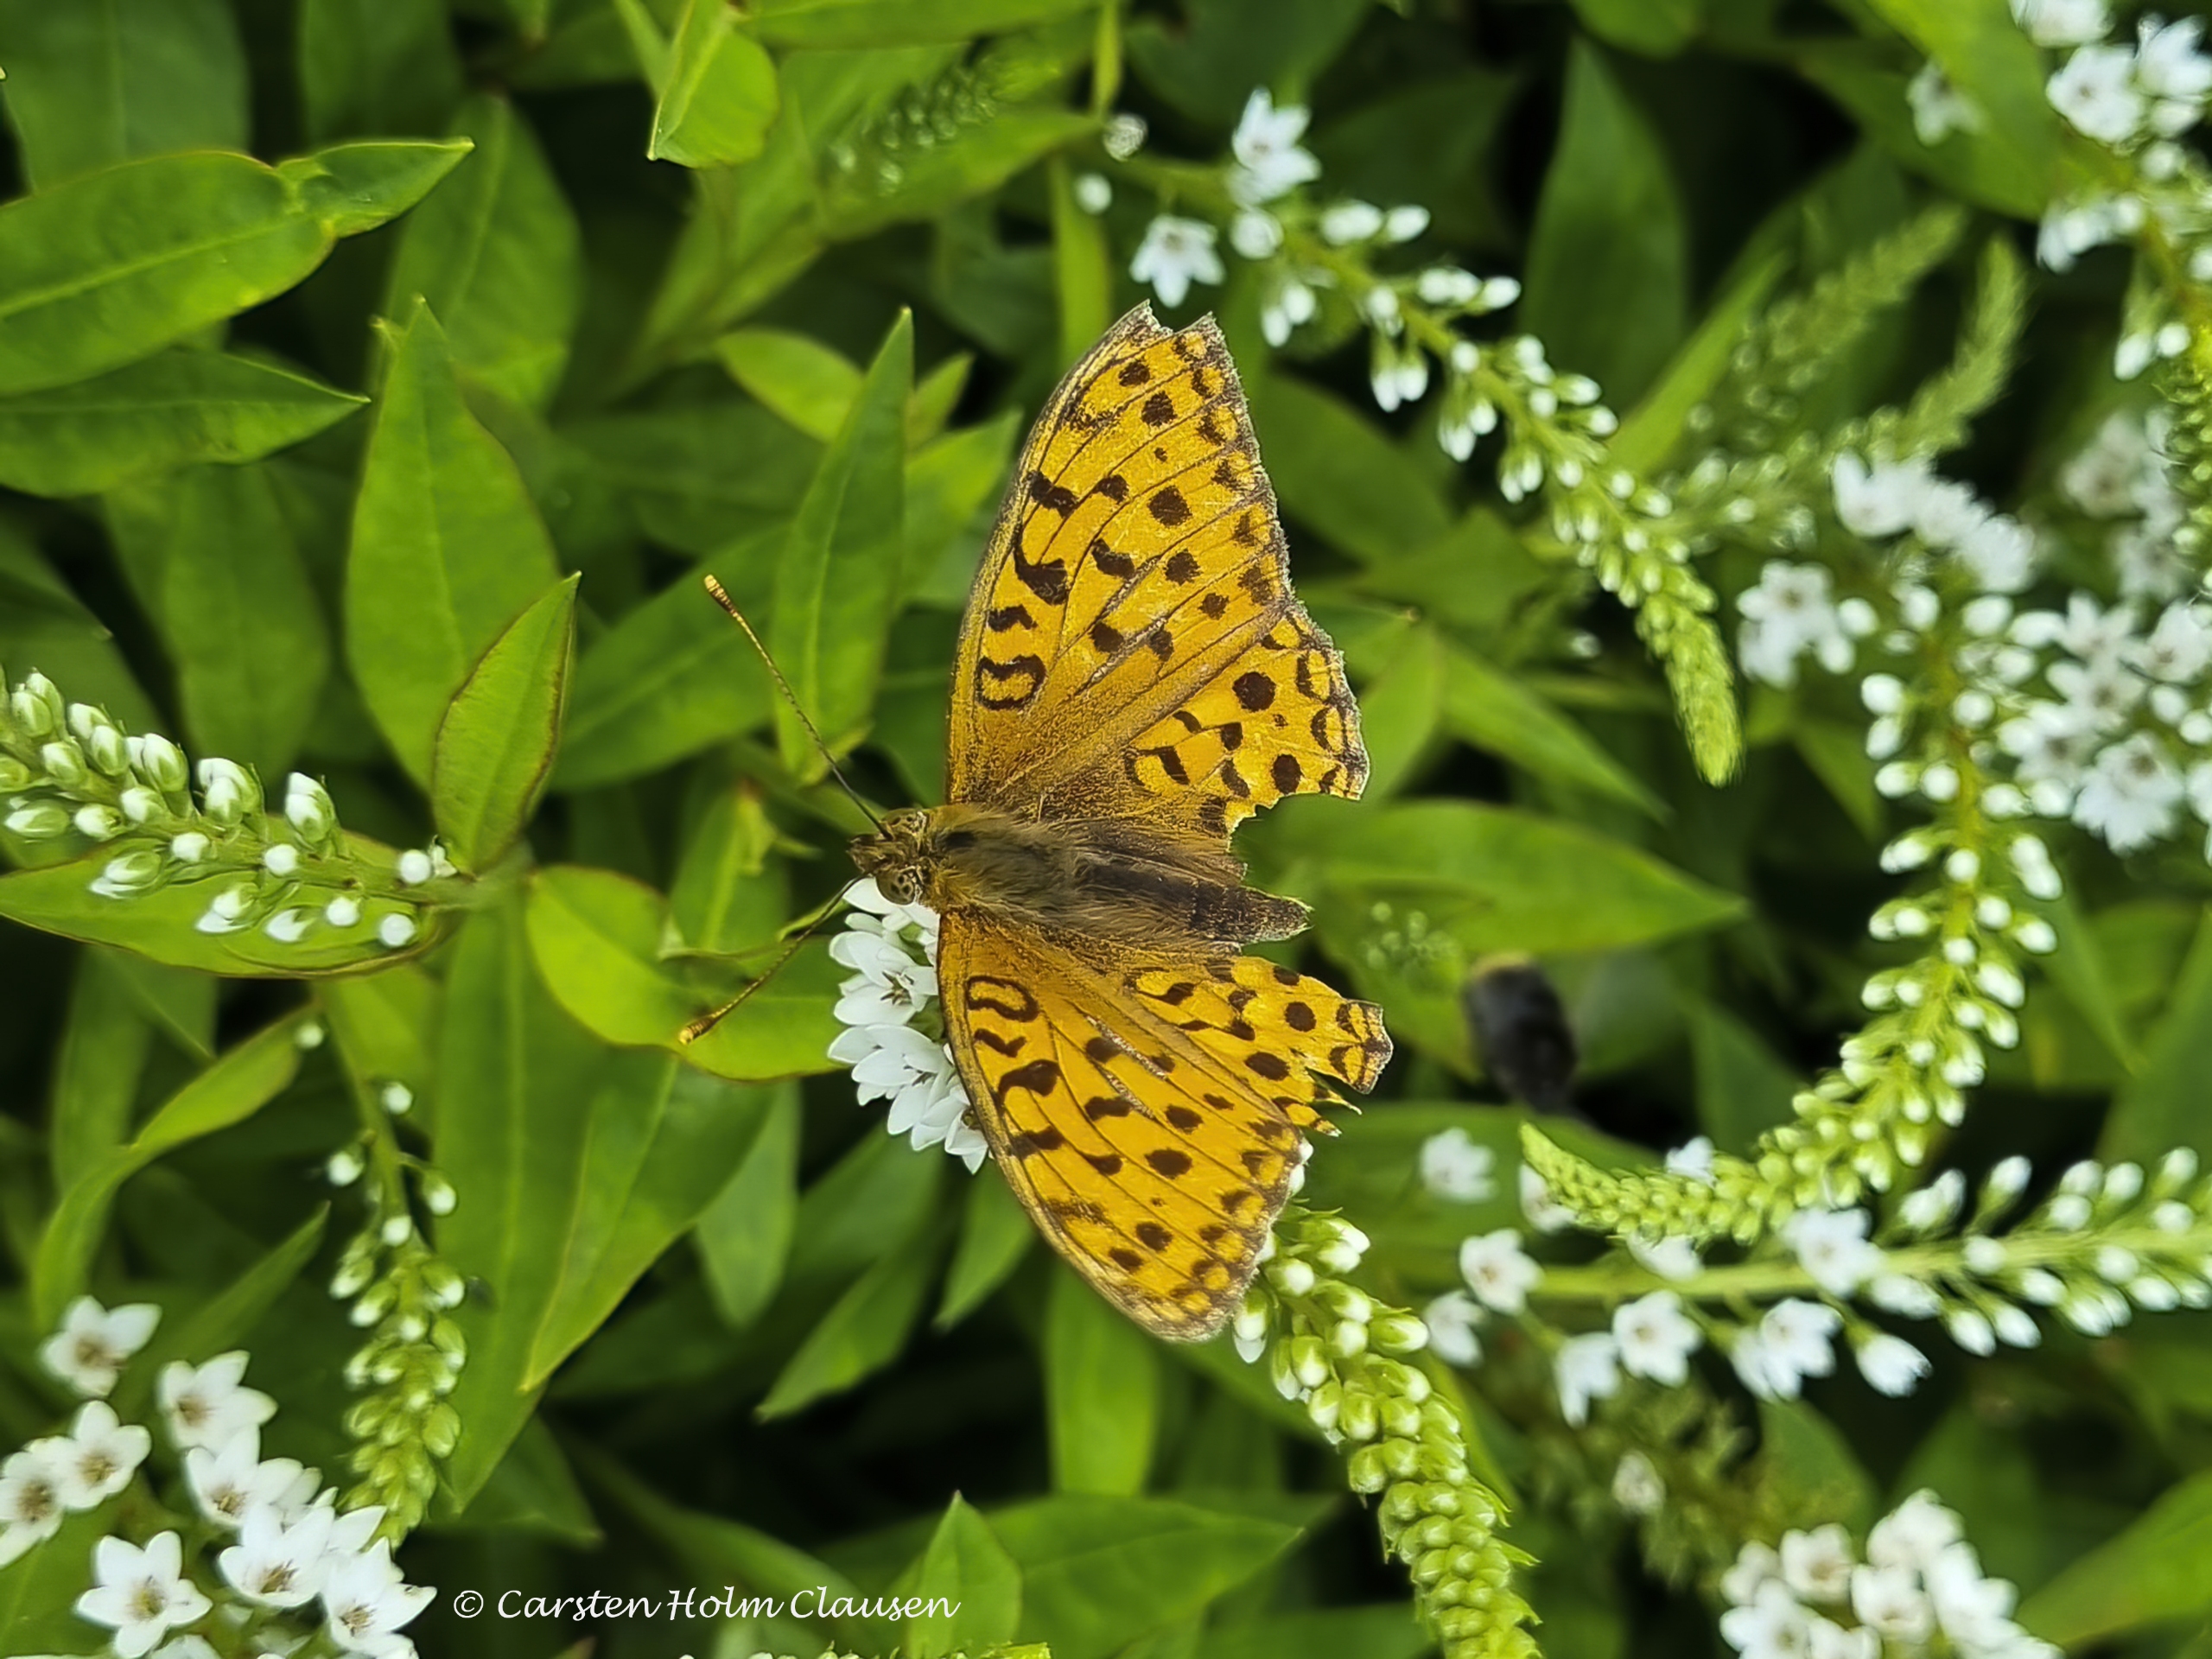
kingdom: Animalia
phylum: Arthropoda
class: Insecta
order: Lepidoptera
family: Nymphalidae
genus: Fabriciana
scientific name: Fabriciana adippe
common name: Skovperlemorsommerfugl
